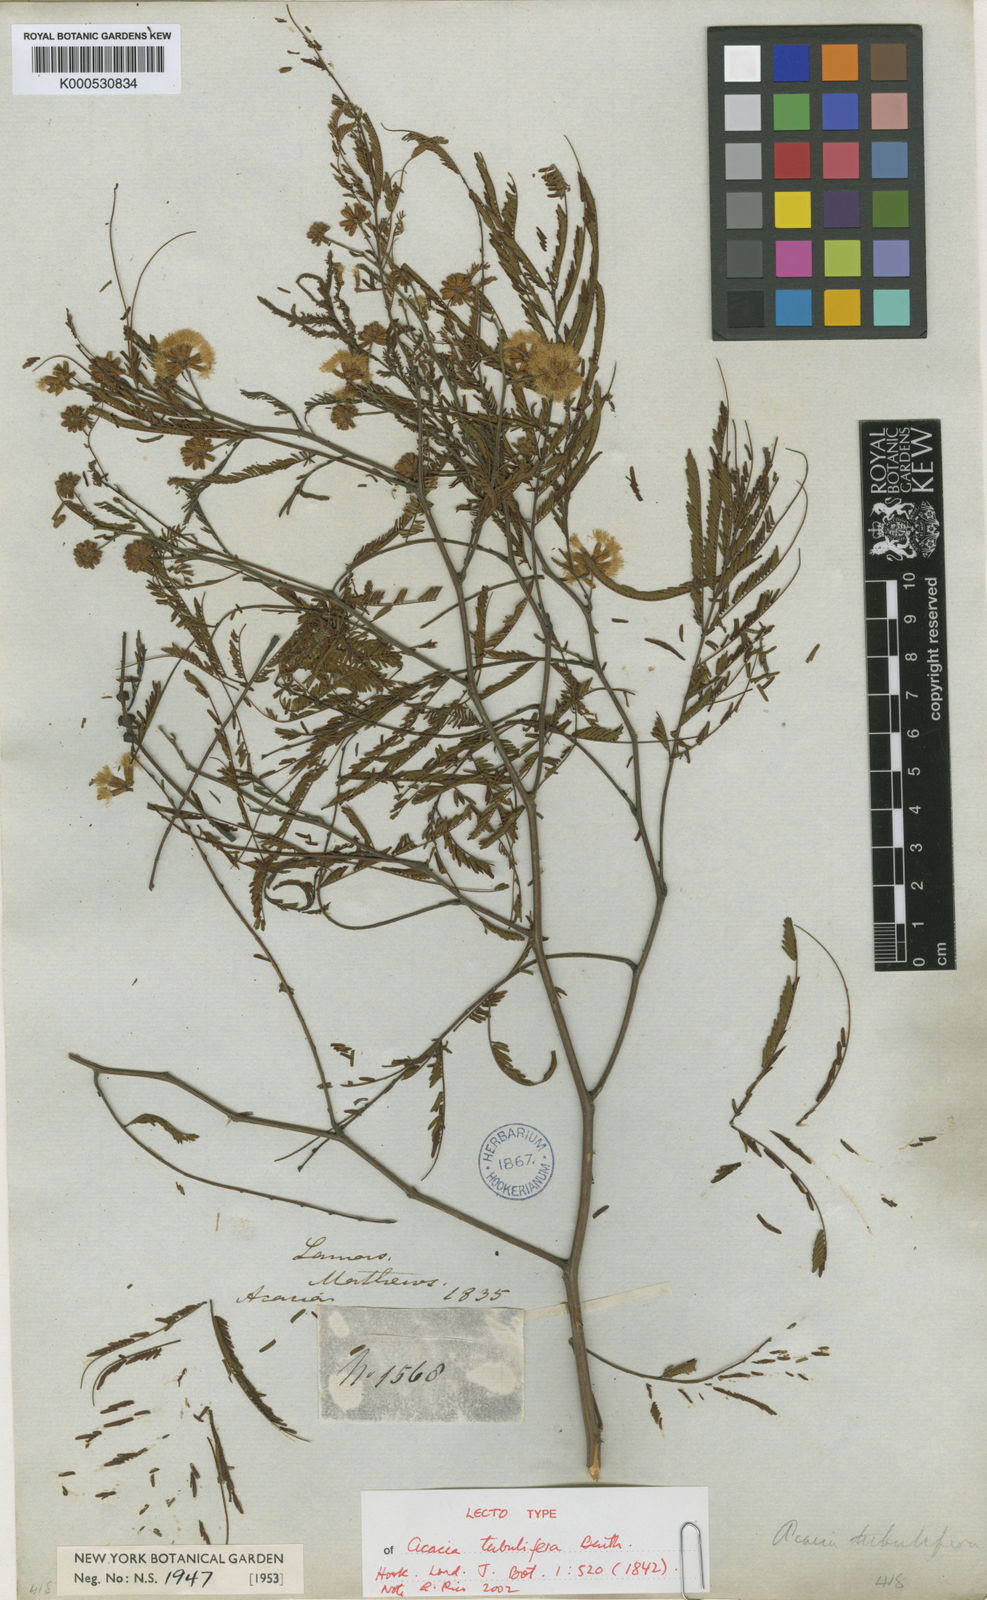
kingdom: Plantae
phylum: Tracheophyta
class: Magnoliopsida
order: Fabales
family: Fabaceae
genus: Senegalia
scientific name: Senegalia tubulifera
